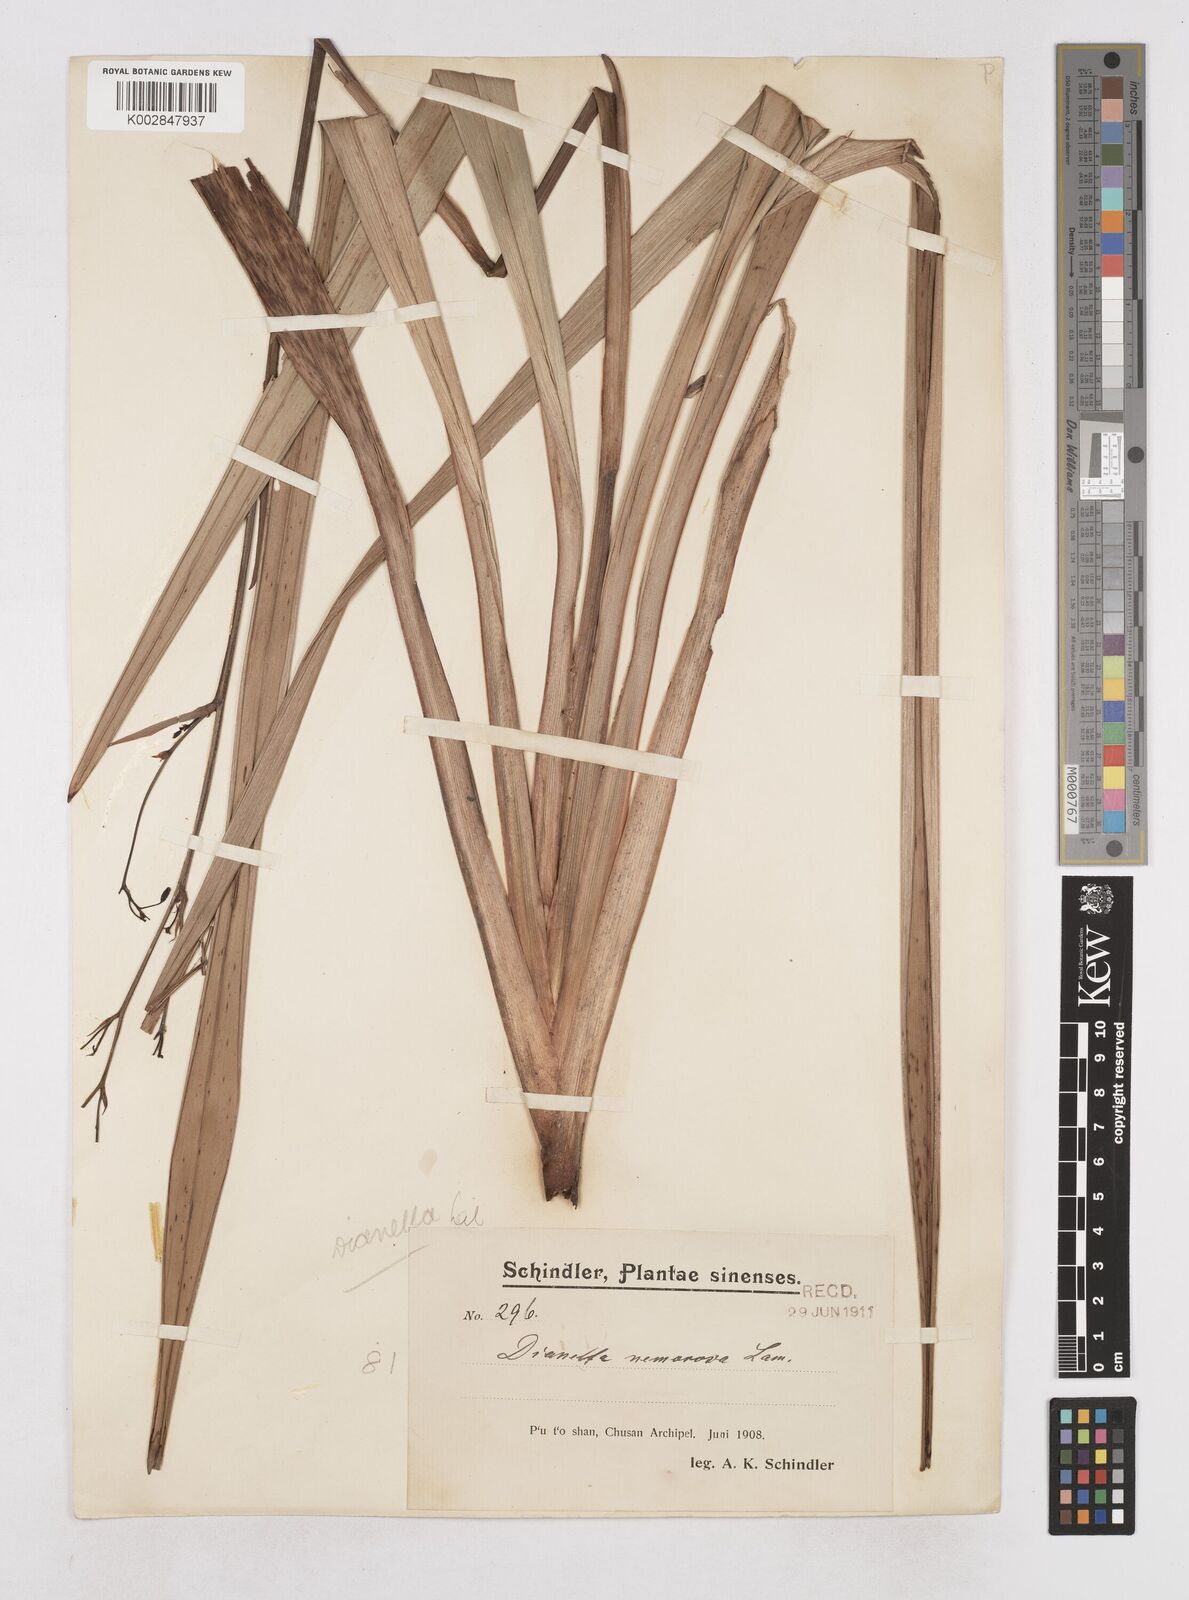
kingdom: Plantae
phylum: Tracheophyta
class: Liliopsida
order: Asparagales
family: Asphodelaceae
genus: Dianella
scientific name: Dianella ensifolia
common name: New zealand lilyplant
